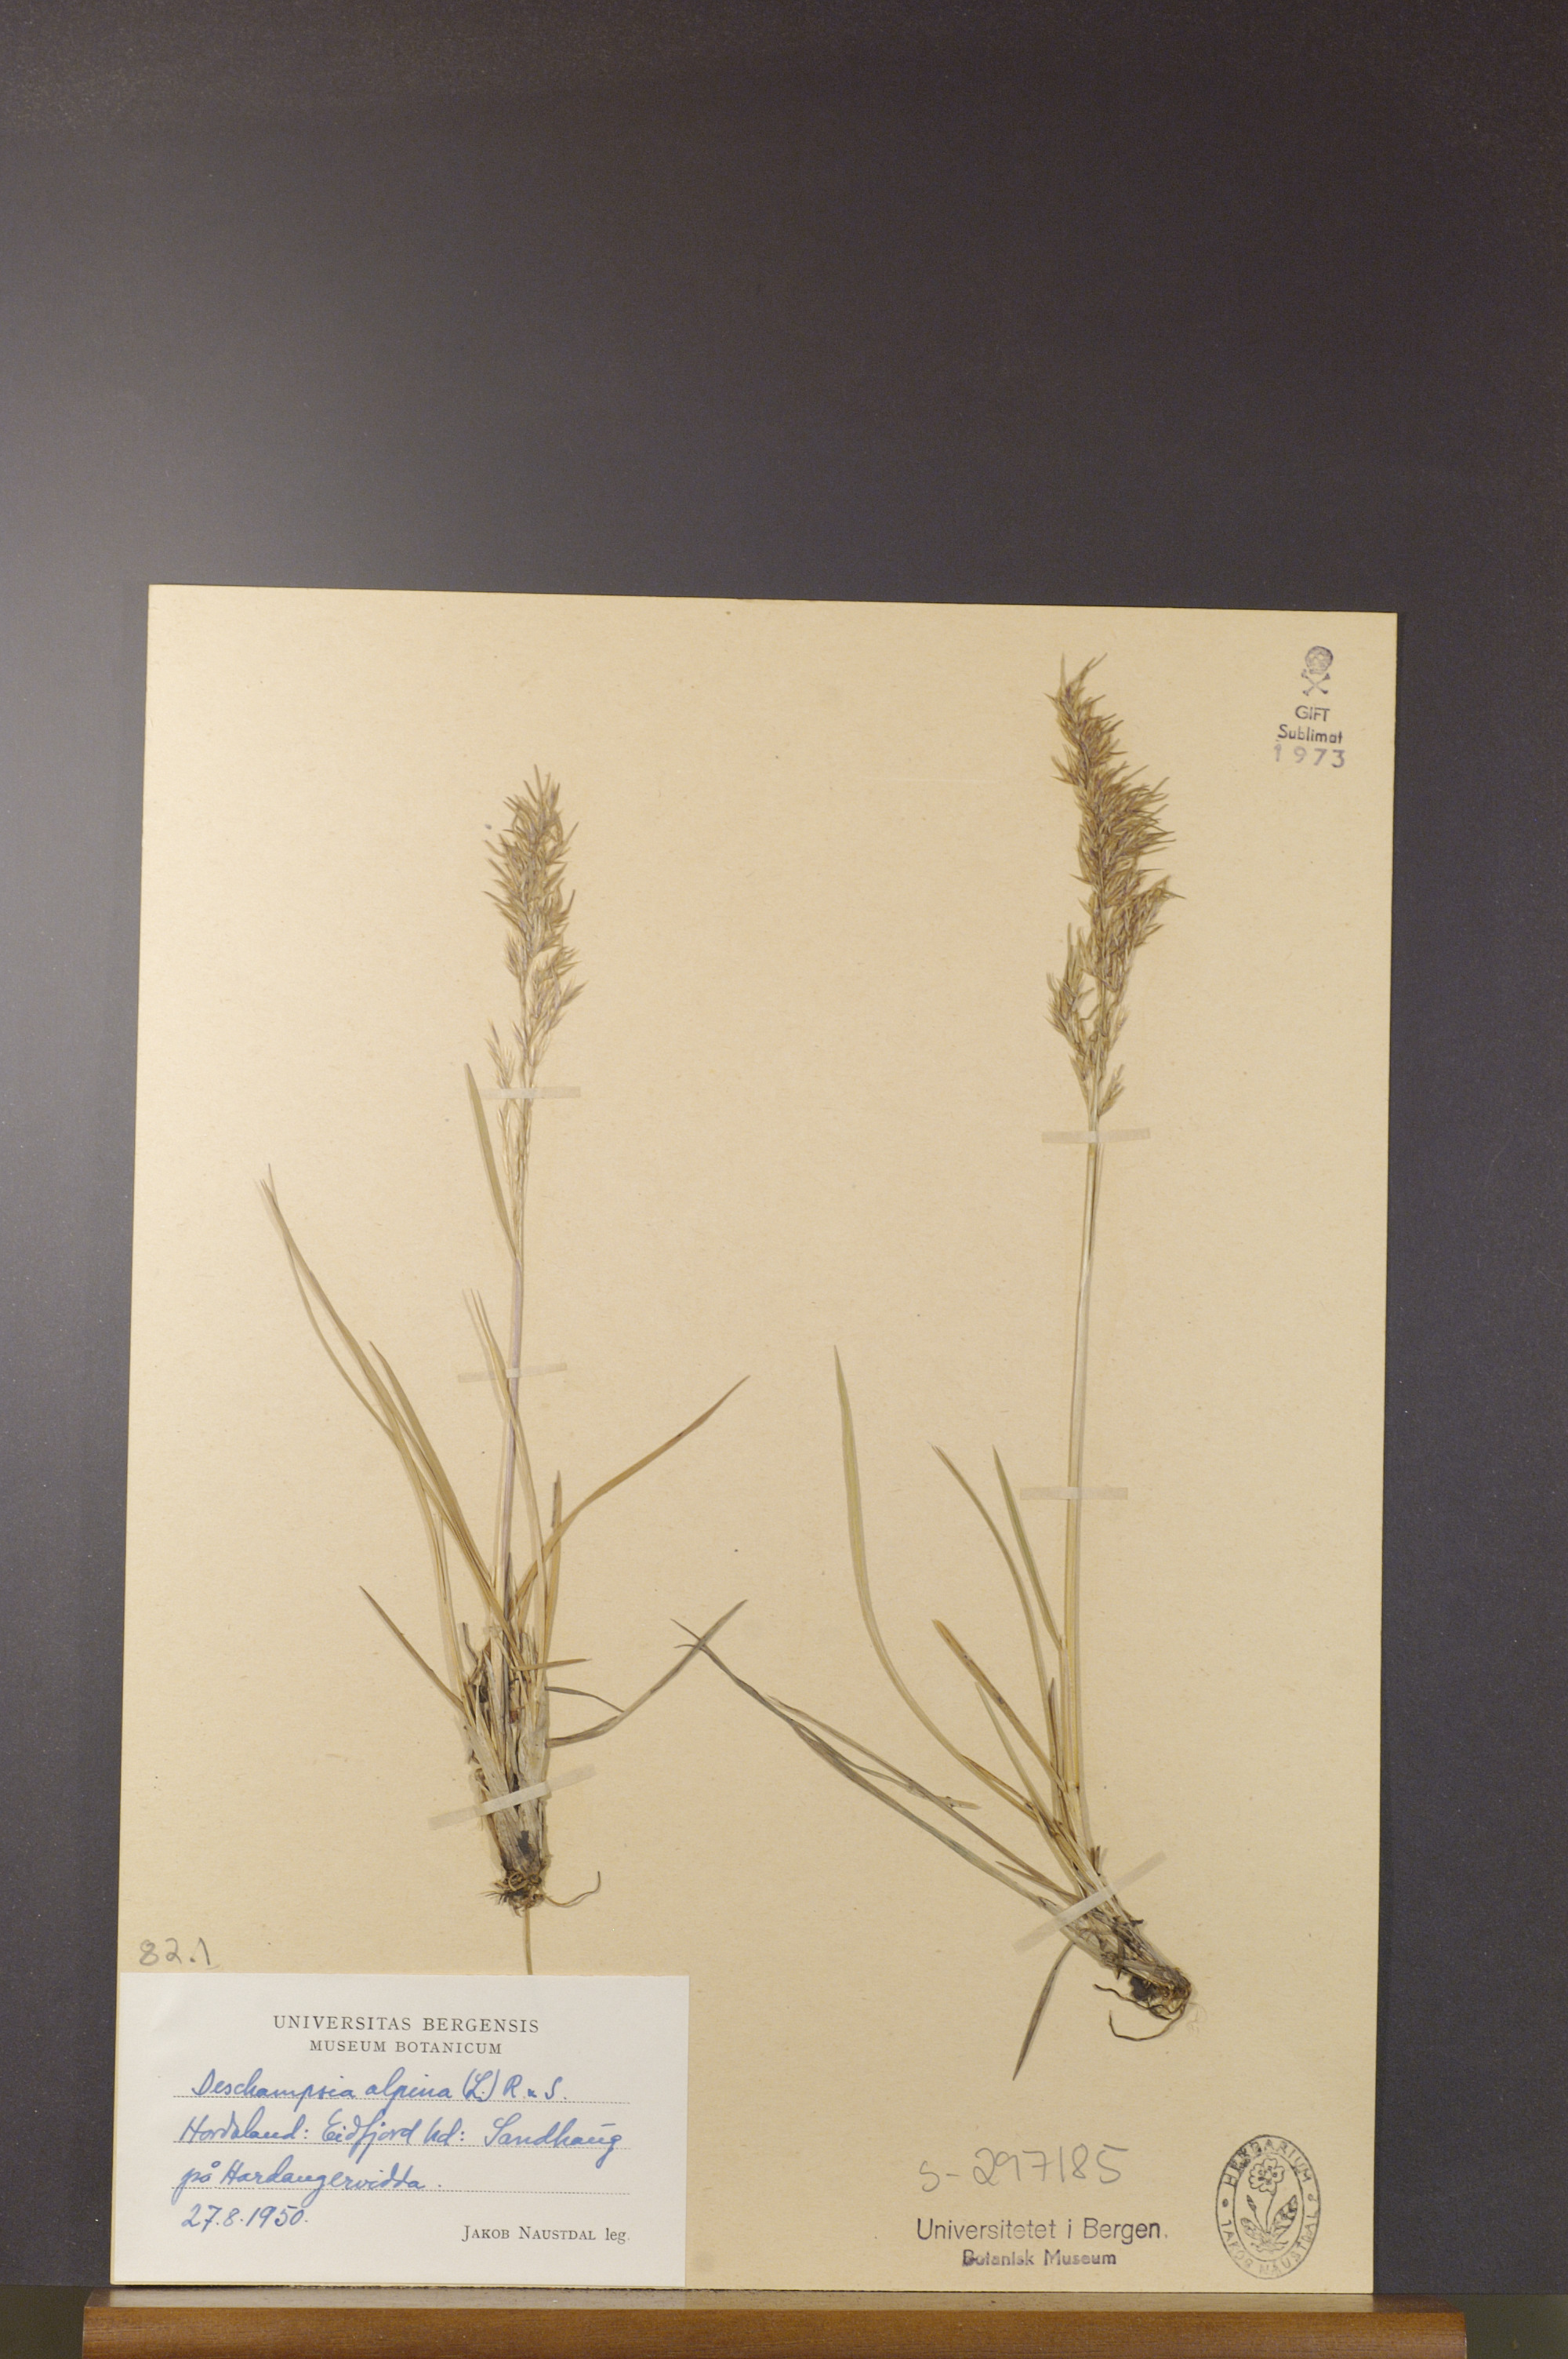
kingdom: Plantae
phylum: Tracheophyta
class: Liliopsida
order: Poales
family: Poaceae
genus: Deschampsia
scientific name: Deschampsia cespitosa
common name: Tufted hair-grass
